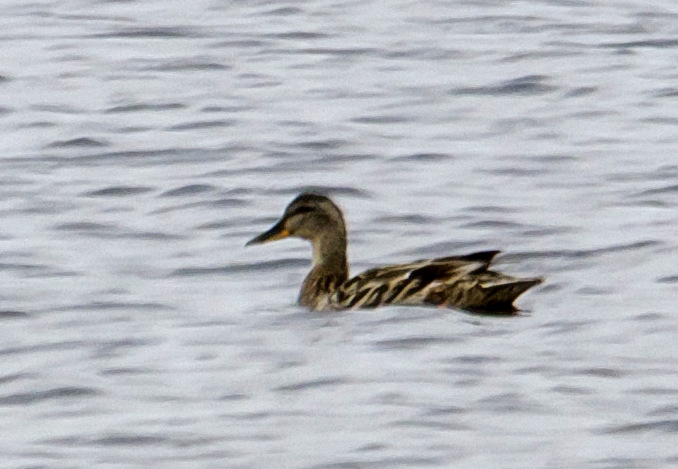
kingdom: Animalia
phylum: Chordata
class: Aves
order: Anseriformes
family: Anatidae
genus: Anas
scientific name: Anas platyrhynchos
